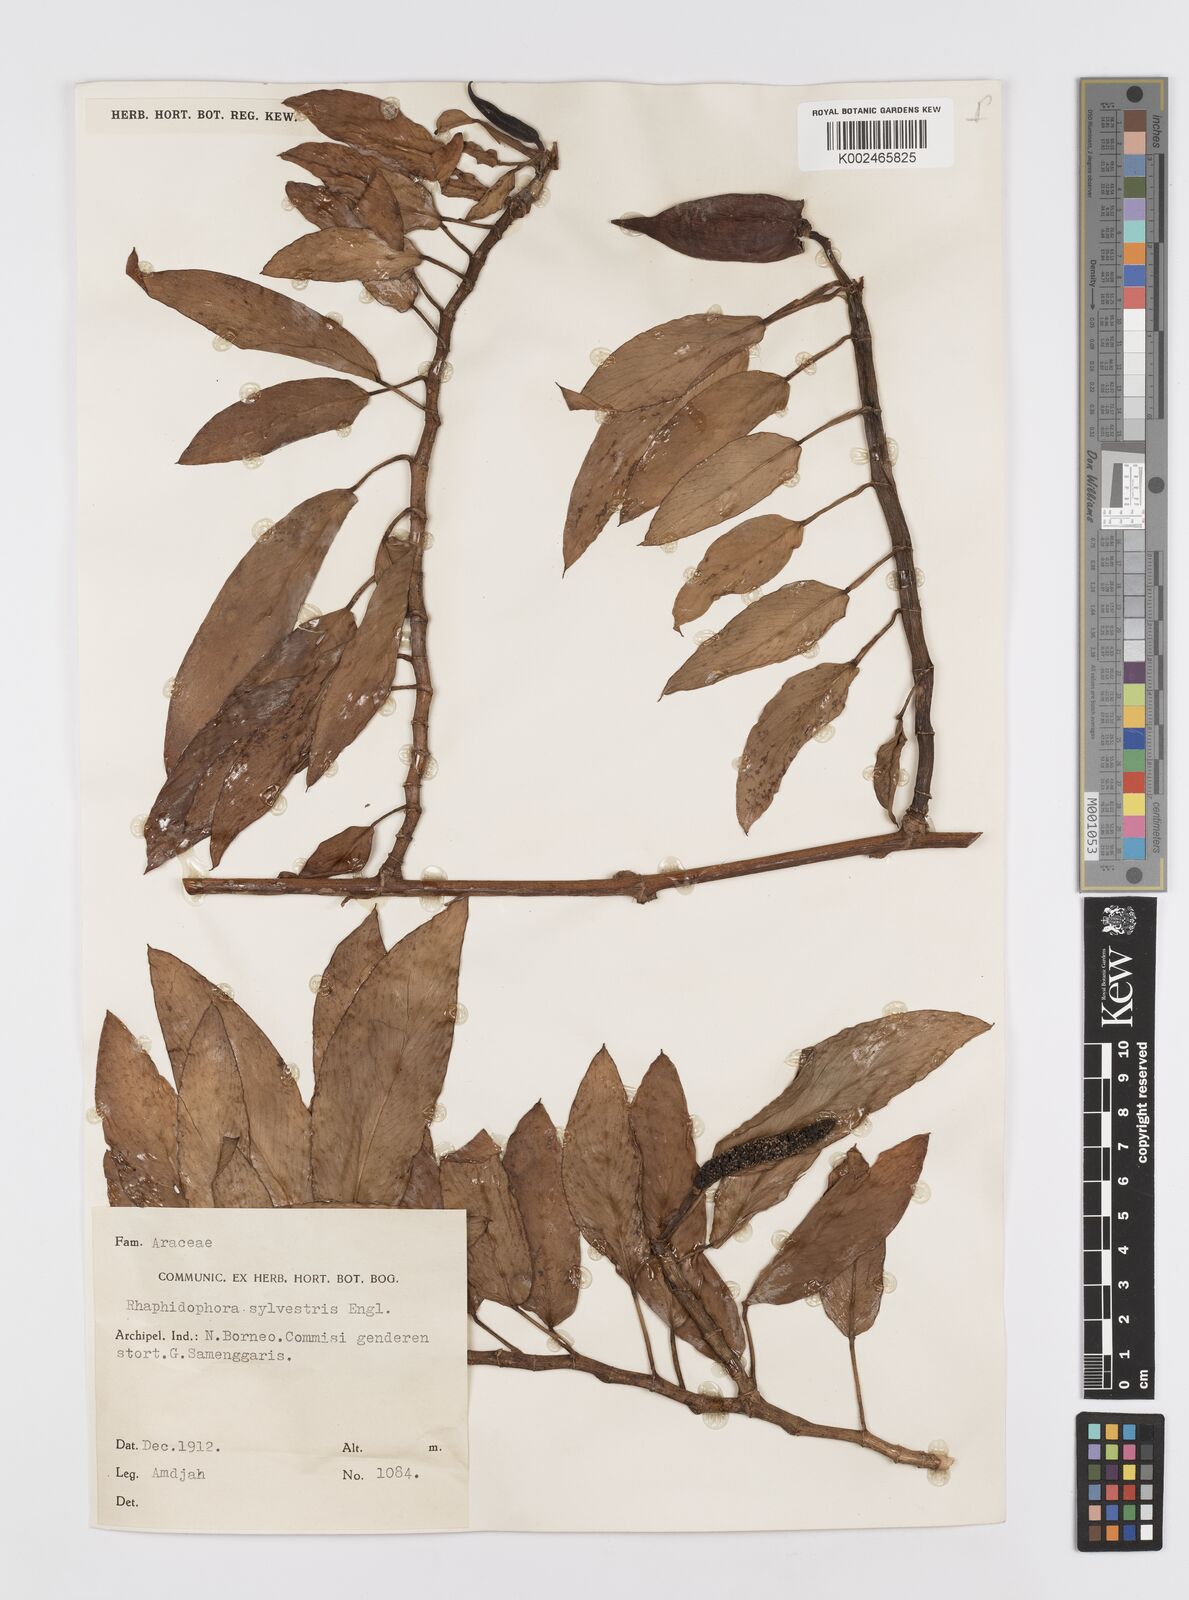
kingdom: Plantae
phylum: Tracheophyta
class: Liliopsida
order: Alismatales
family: Araceae
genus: Rhaphidophora
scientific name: Rhaphidophora minor
